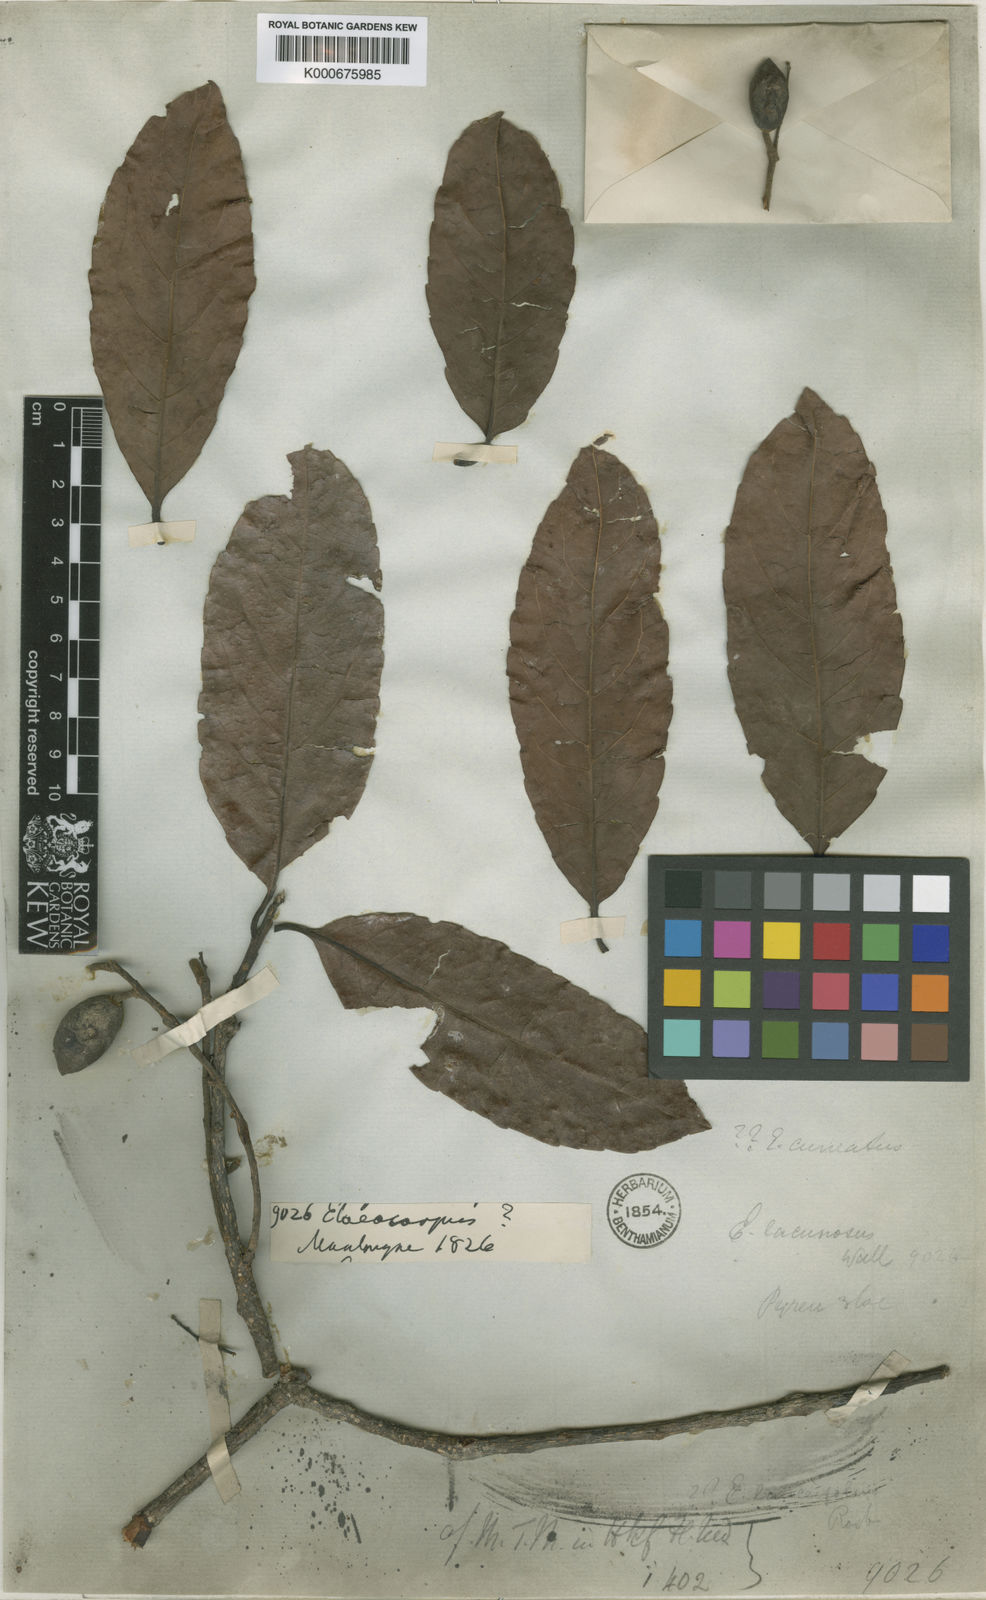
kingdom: Plantae
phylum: Tracheophyta
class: Magnoliopsida
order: Oxalidales
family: Elaeocarpaceae
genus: Elaeocarpus
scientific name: Elaeocarpus
